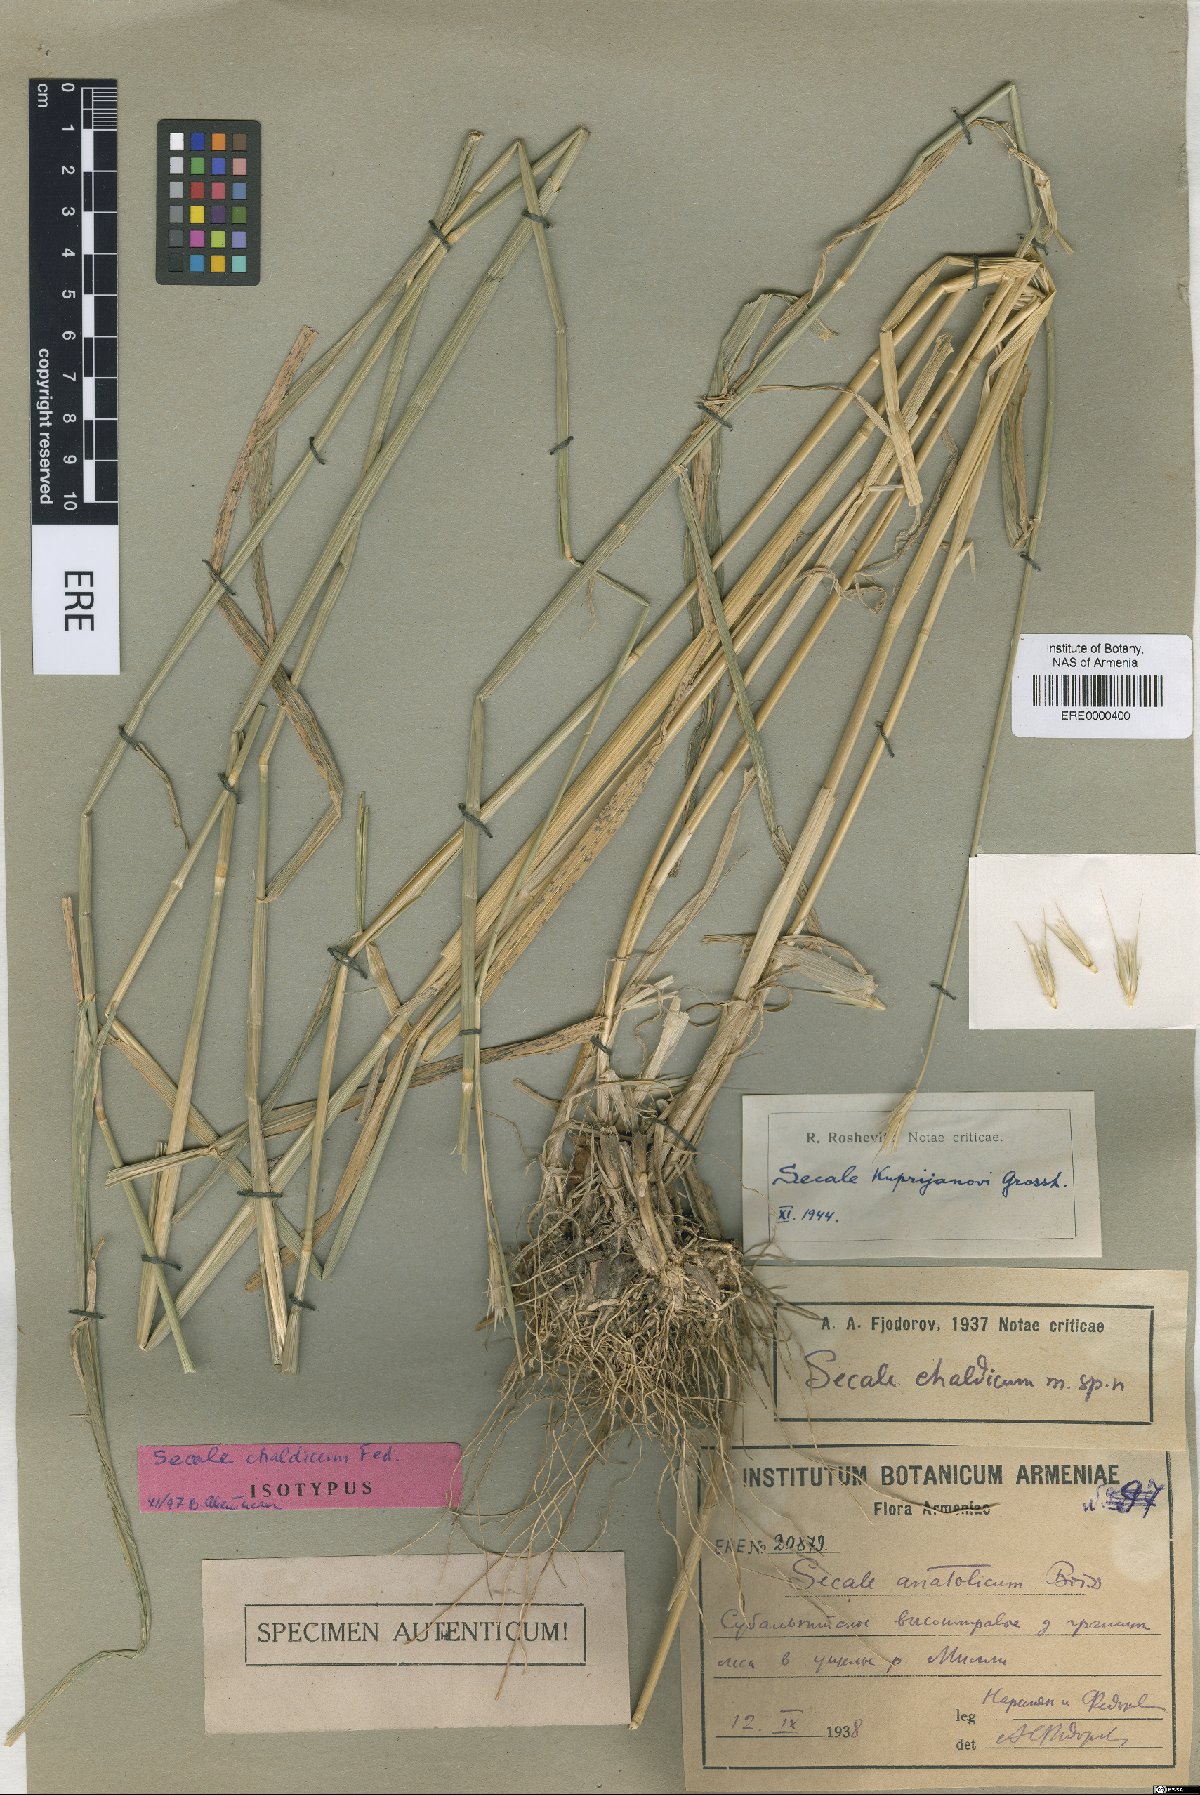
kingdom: Plantae
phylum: Tracheophyta
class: Liliopsida
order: Poales
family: Poaceae
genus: Secale
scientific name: Secale strictum
